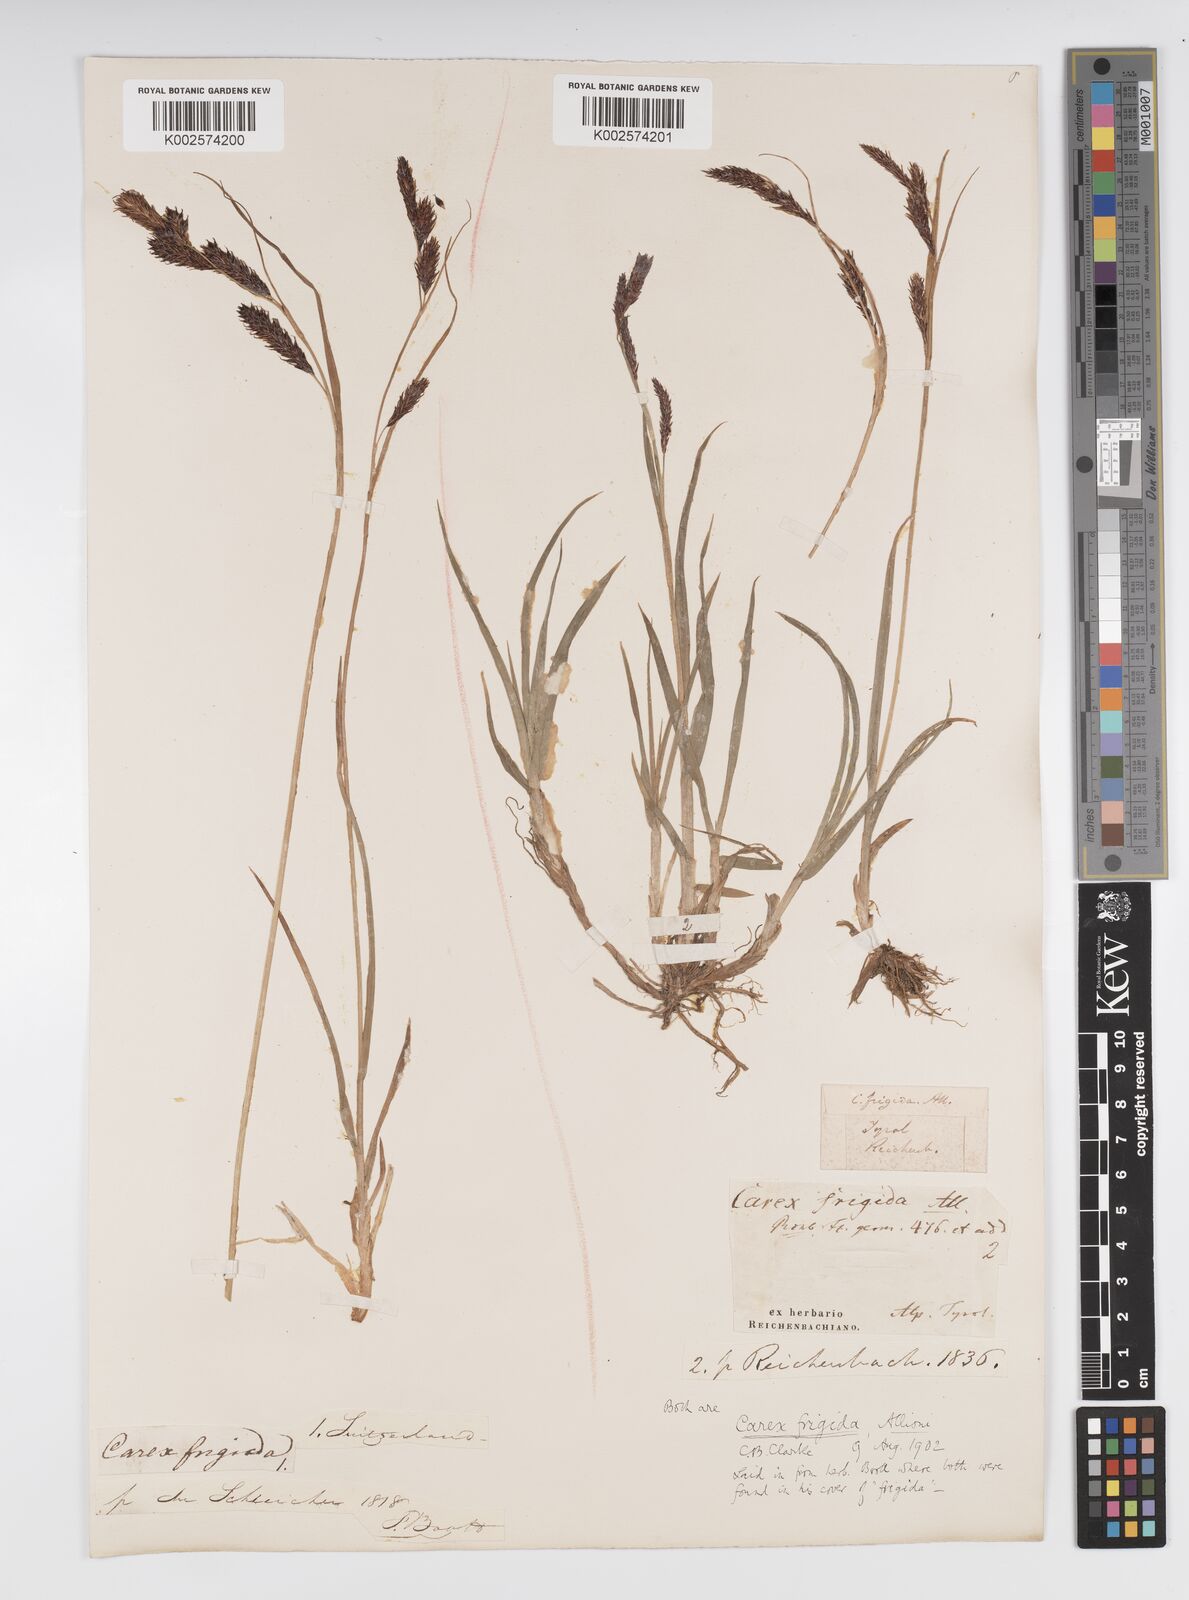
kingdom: Plantae
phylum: Tracheophyta
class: Liliopsida
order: Poales
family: Cyperaceae
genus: Carex
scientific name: Carex frigida
